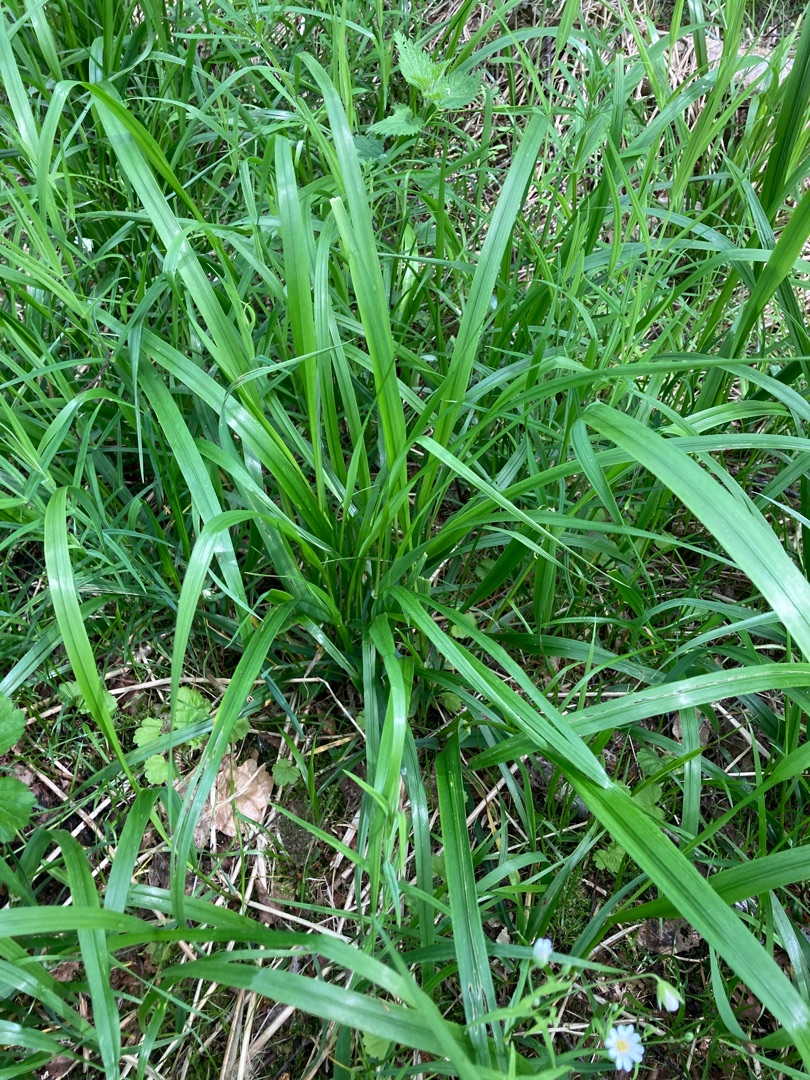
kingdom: Plantae
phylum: Tracheophyta
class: Liliopsida
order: Poales
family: Poaceae
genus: Lolium
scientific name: Lolium giganteum
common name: Kæmpe-svingel
